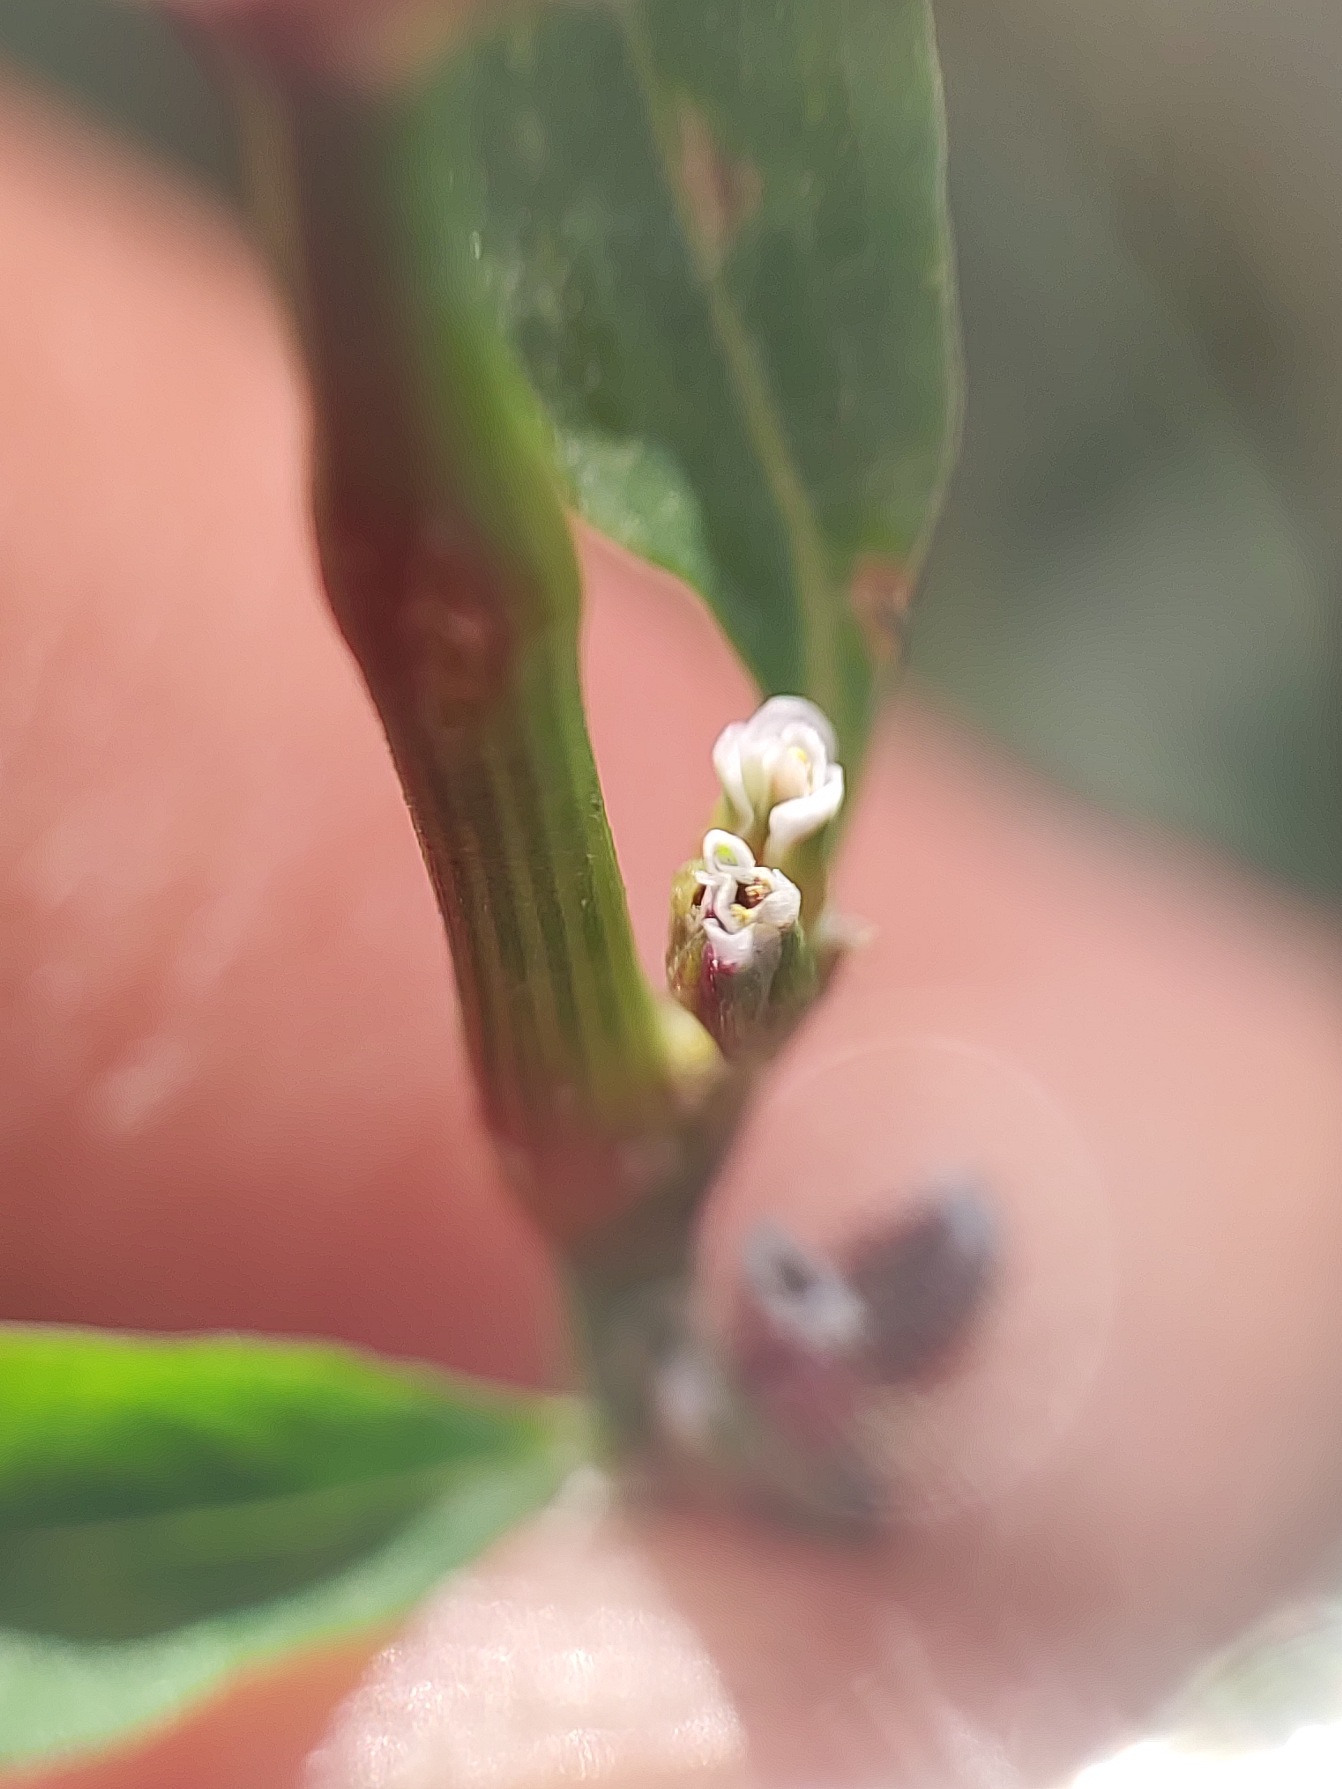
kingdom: Plantae
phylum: Tracheophyta
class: Magnoliopsida
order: Caryophyllales
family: Polygonaceae
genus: Polygonum
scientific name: Polygonum aviculare
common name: Vej-pileurt
